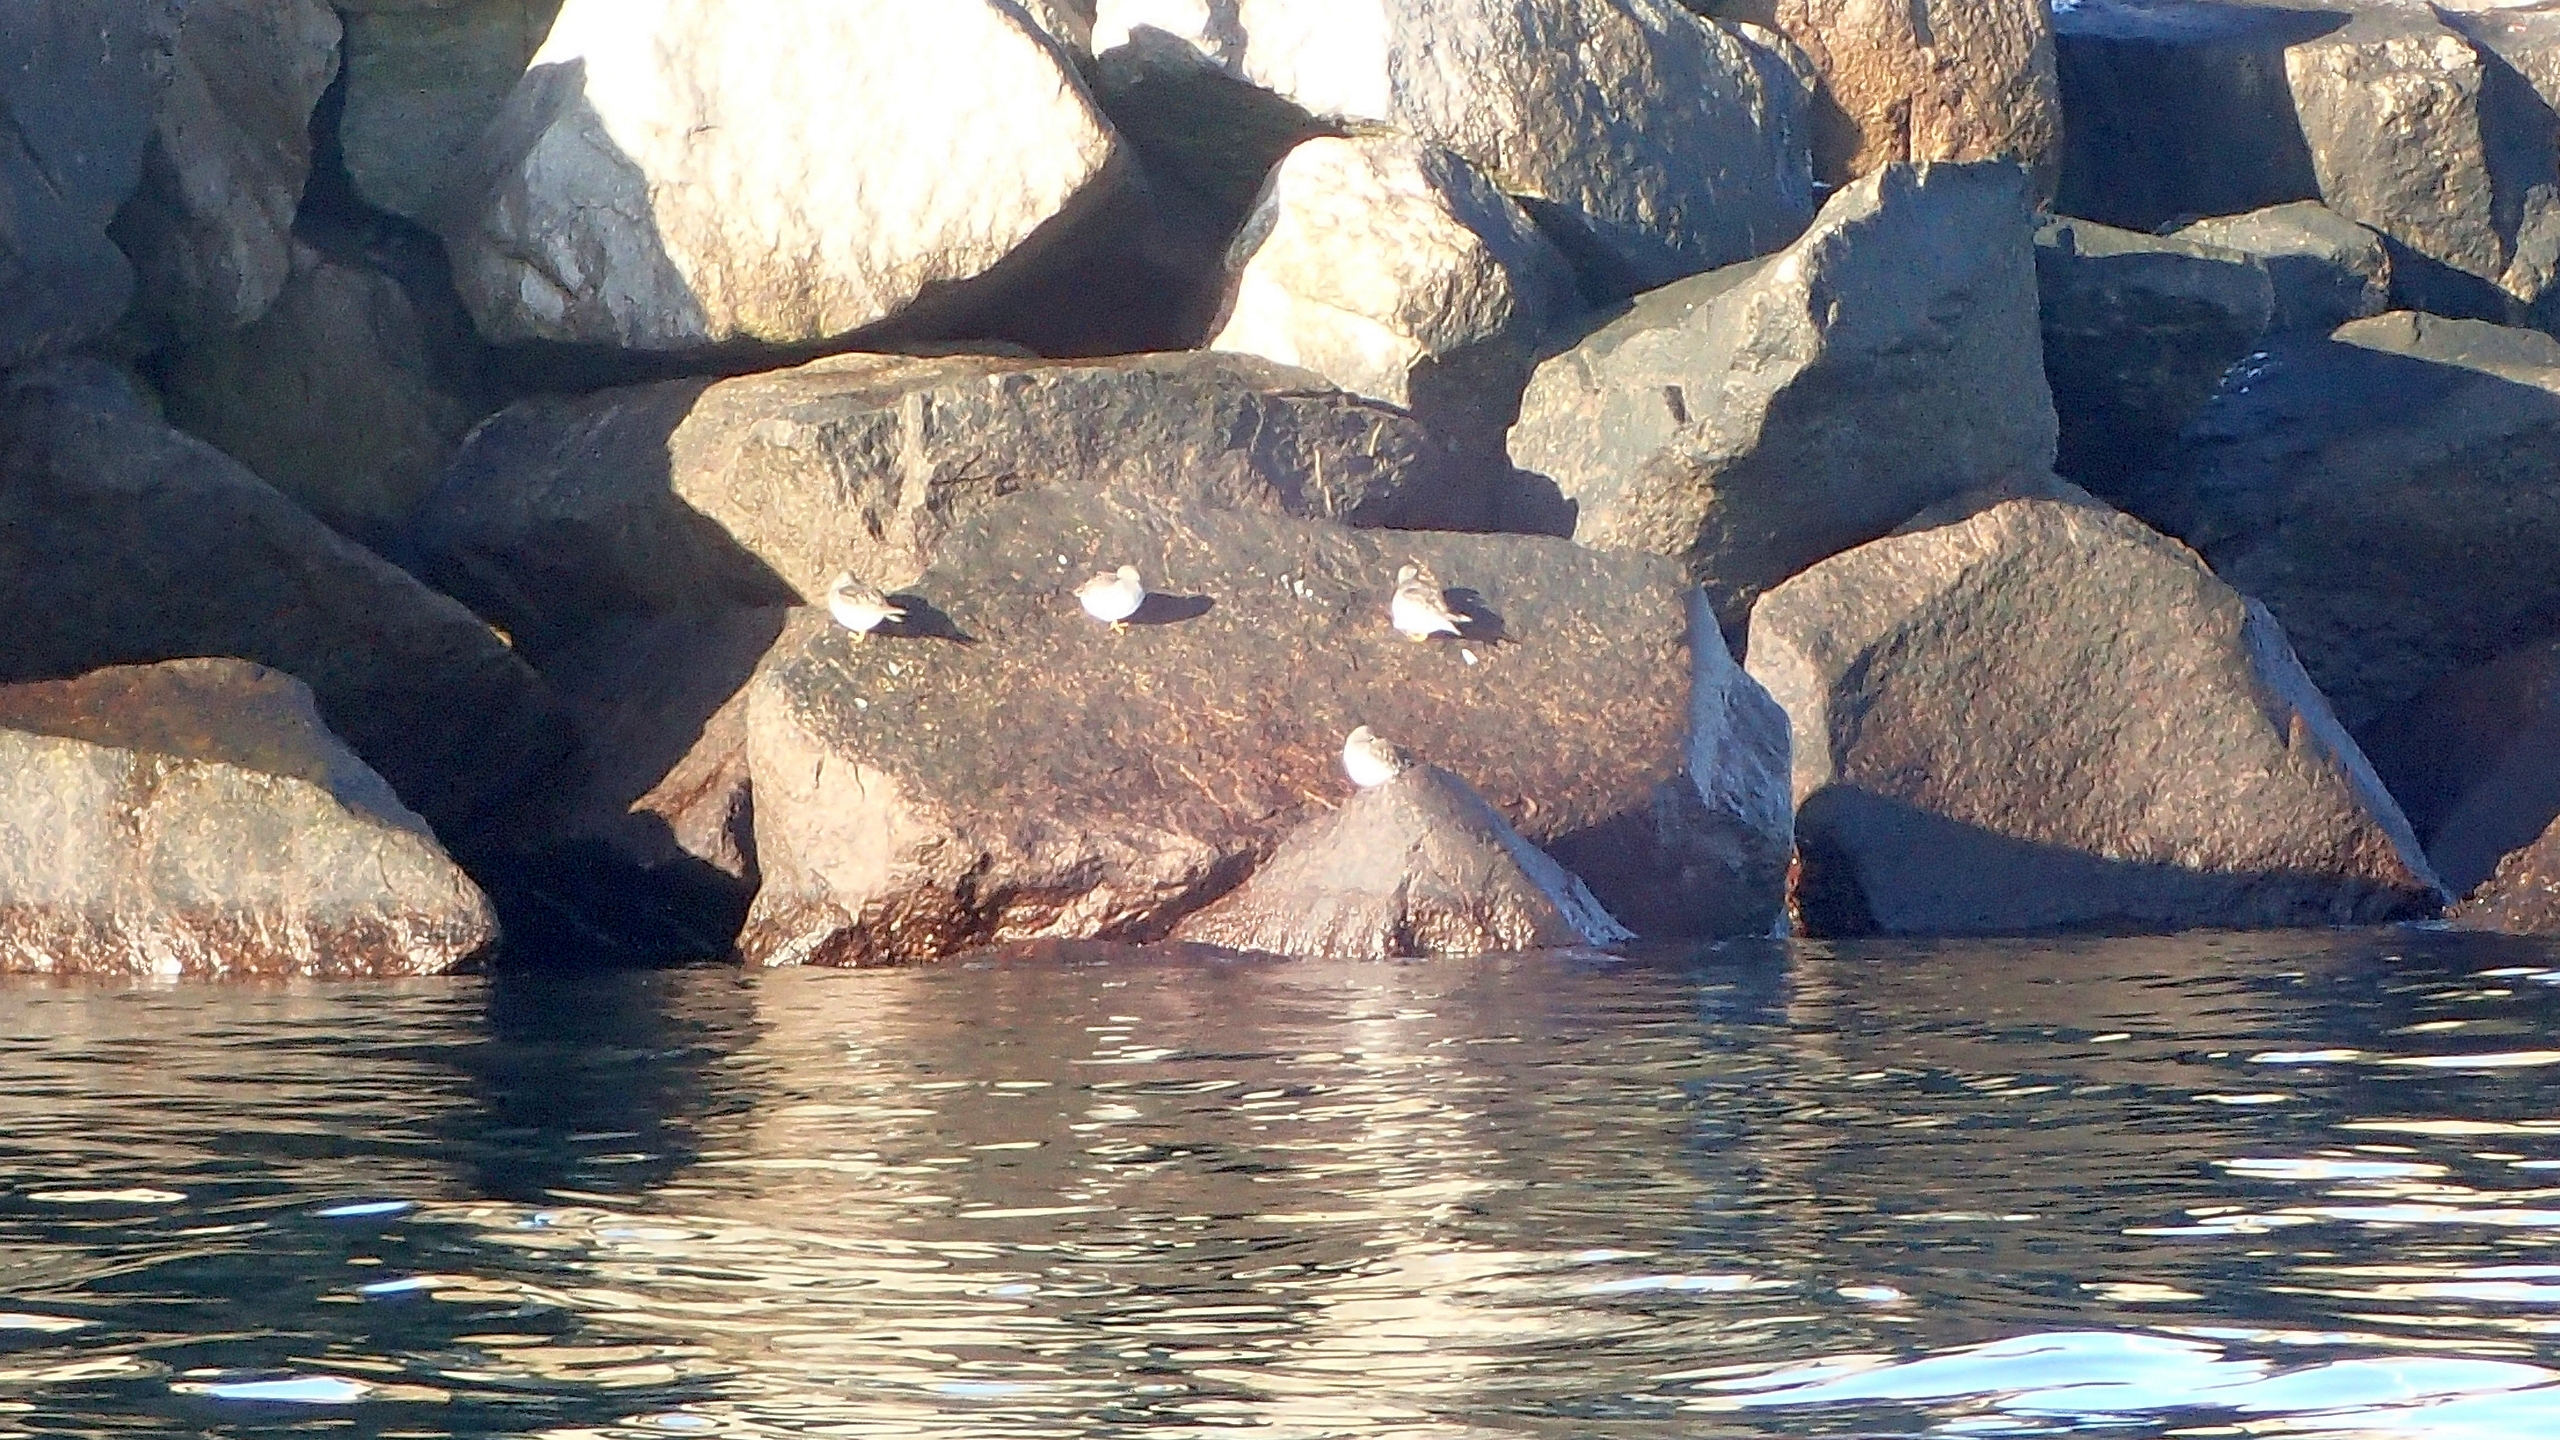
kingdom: Animalia
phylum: Chordata
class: Aves
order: Charadriiformes
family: Scolopacidae
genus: Calidris
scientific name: Calidris maritima
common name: Sortgrå ryle
